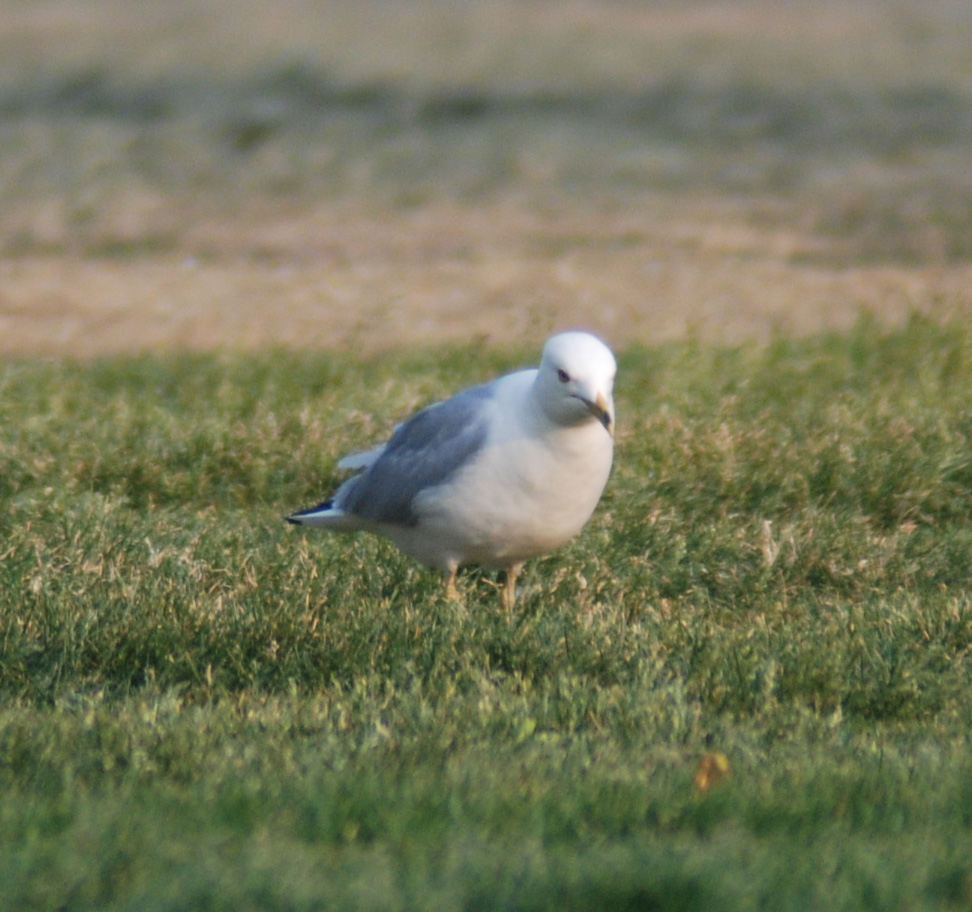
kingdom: Animalia
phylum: Chordata
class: Aves
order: Charadriiformes
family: Laridae
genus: Larus
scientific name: Larus delawarensis
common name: Ring-billed gull
